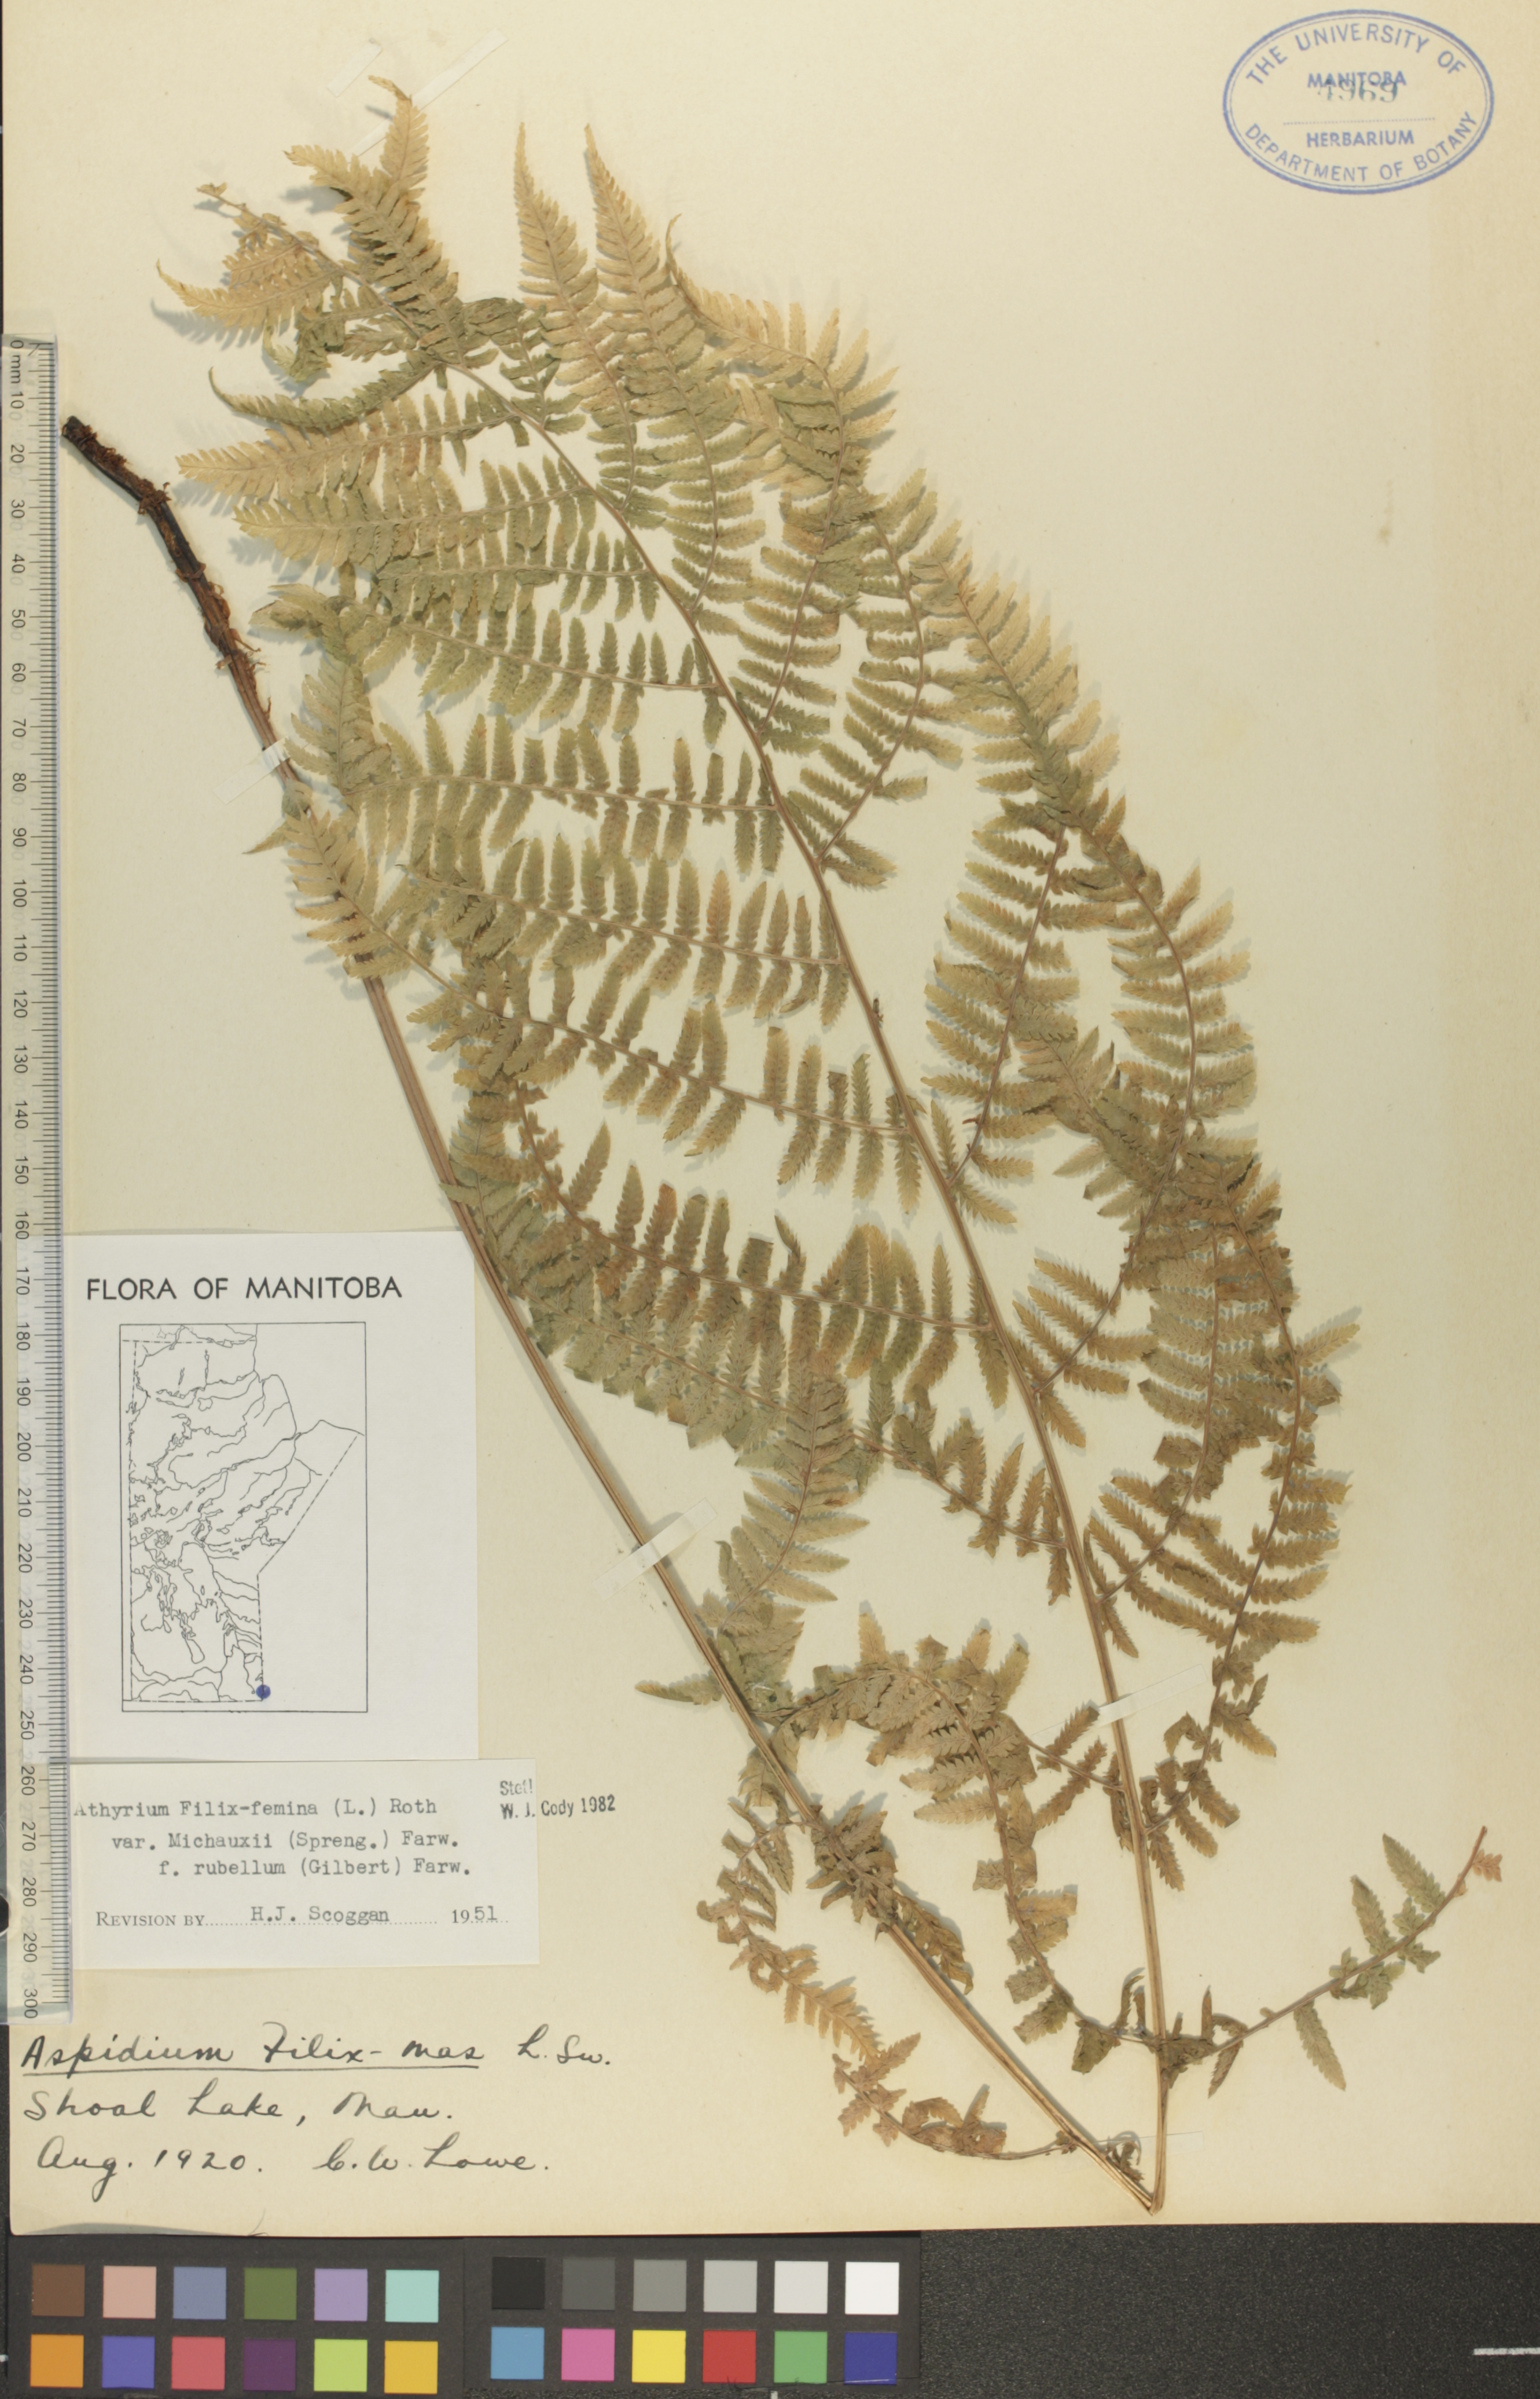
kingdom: Plantae
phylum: Tracheophyta
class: Polypodiopsida
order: Polypodiales
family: Athyriaceae
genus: Athyrium
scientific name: Athyrium angustum
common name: Northern lady fern
